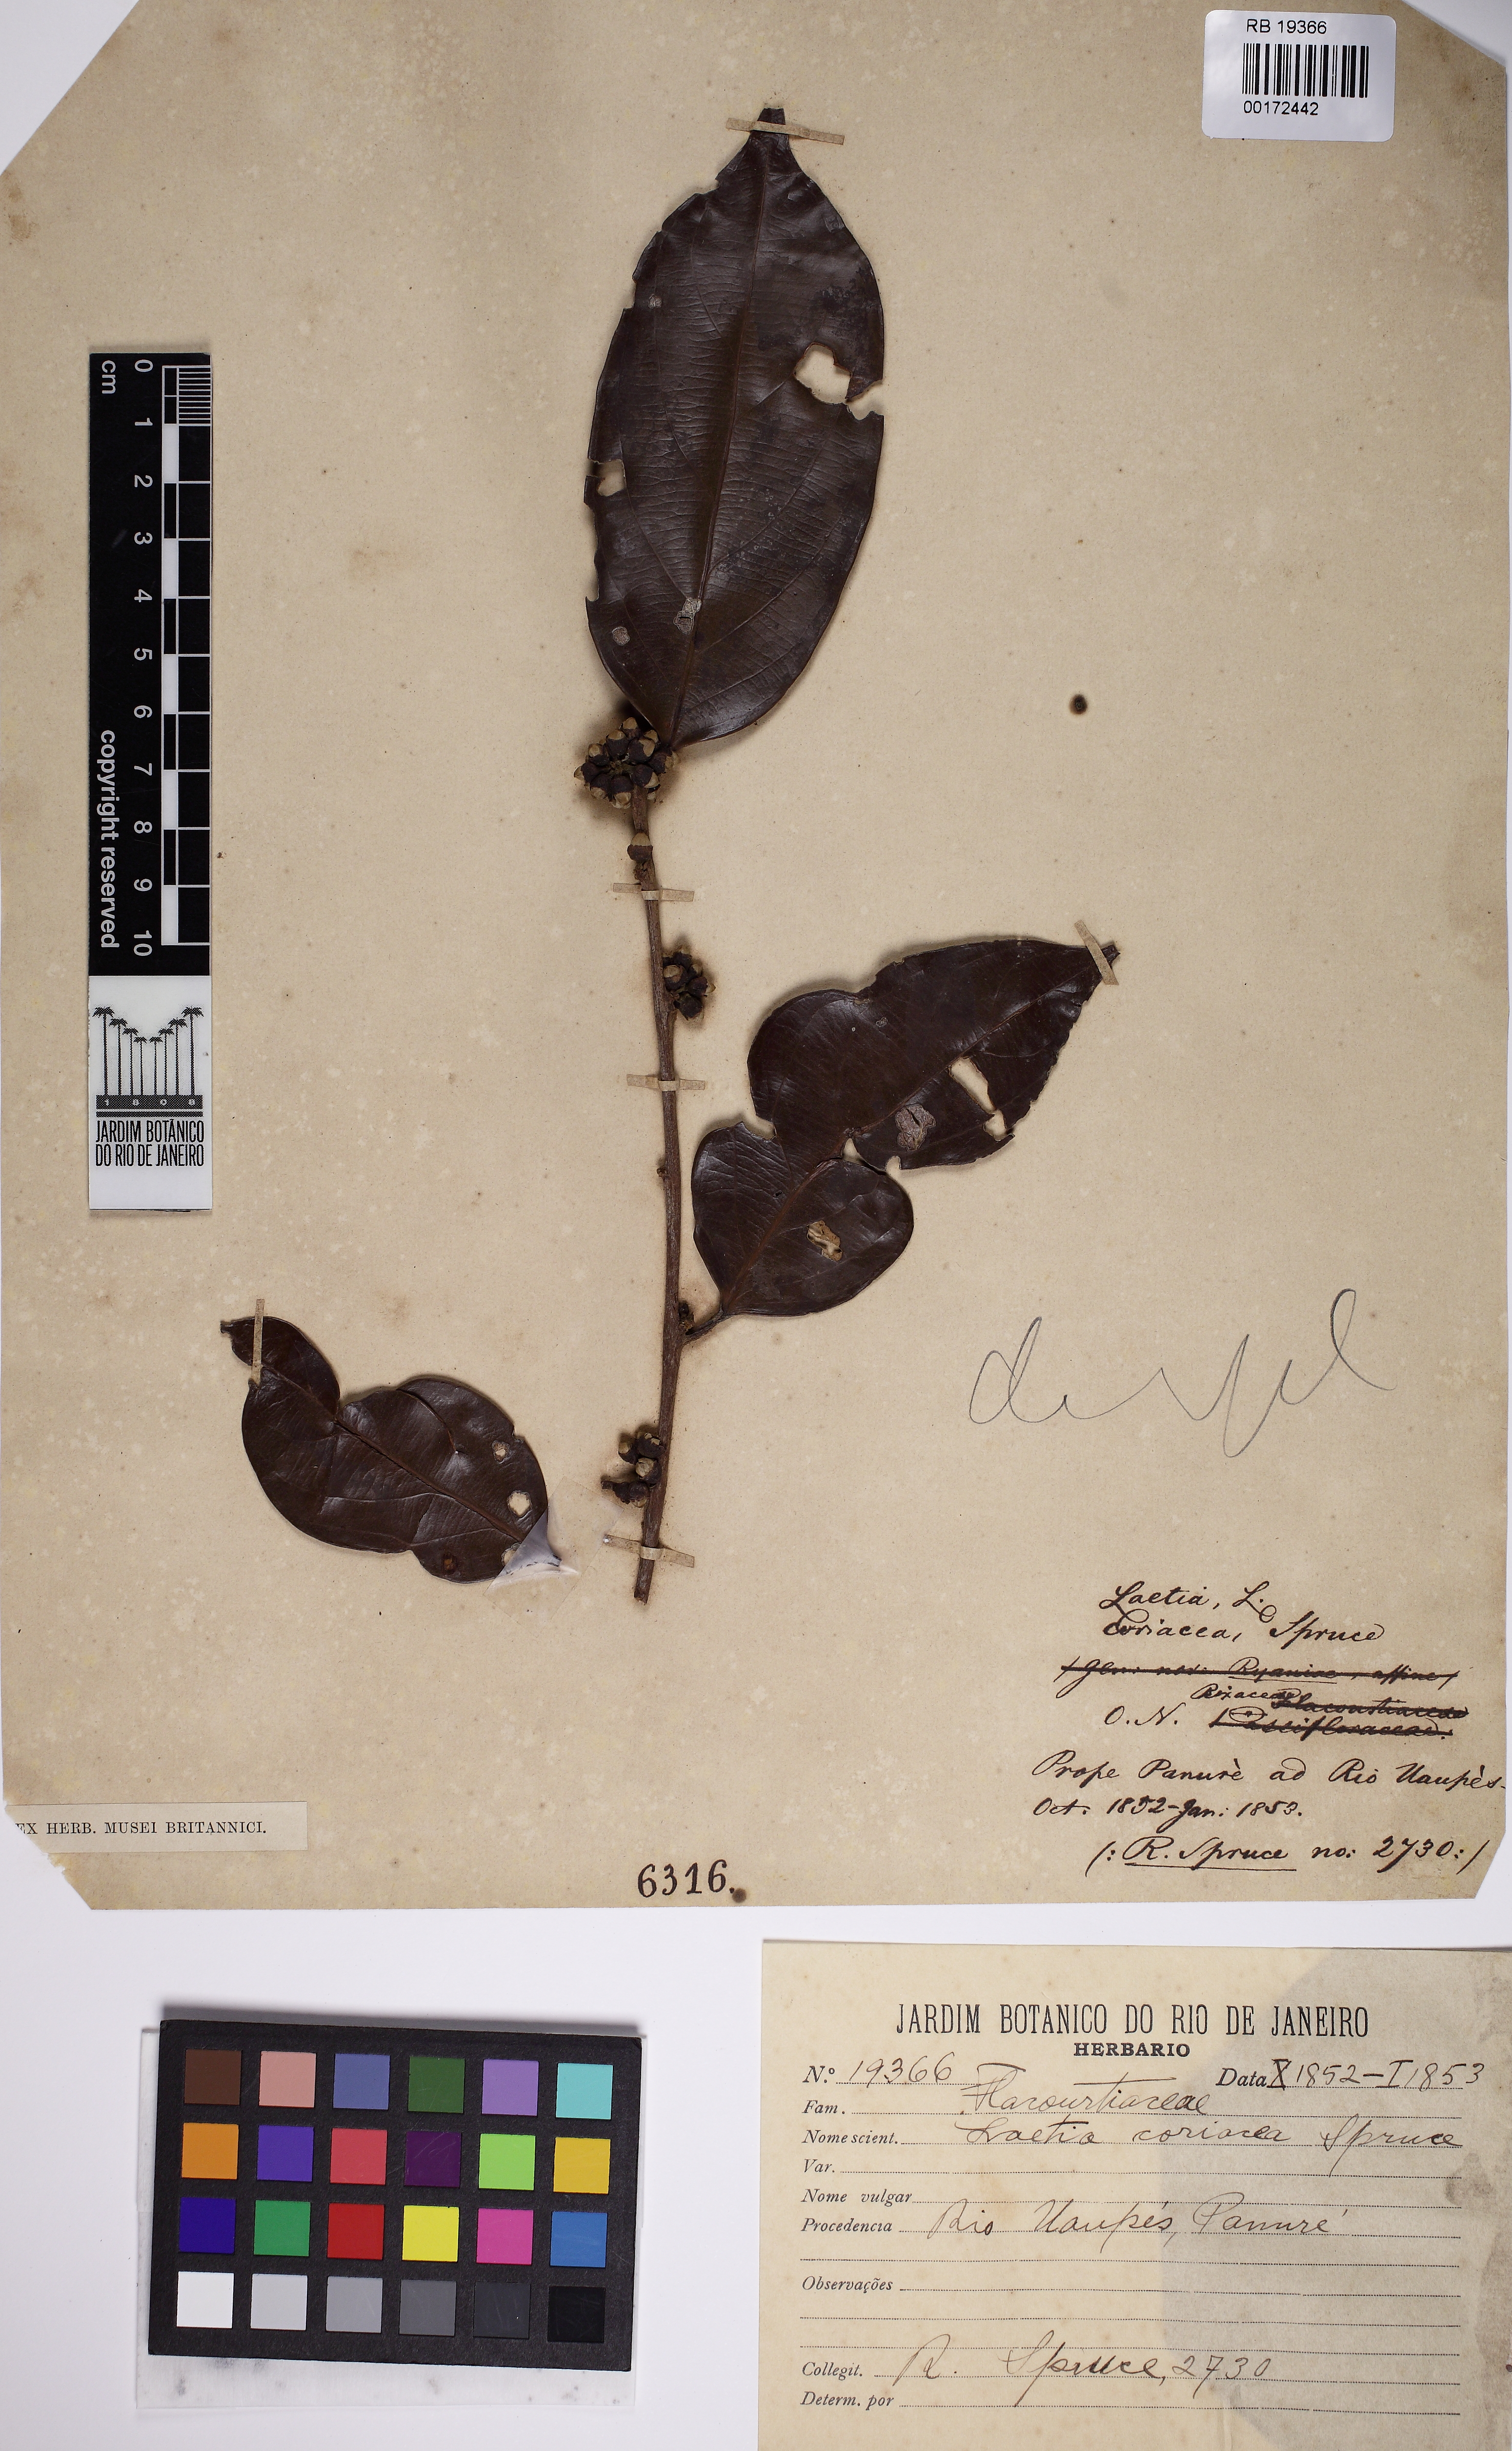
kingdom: Plantae
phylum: Tracheophyta
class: Magnoliopsida
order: Malpighiales
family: Salicaceae
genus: Irenodendron
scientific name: Irenodendron coriaceum
